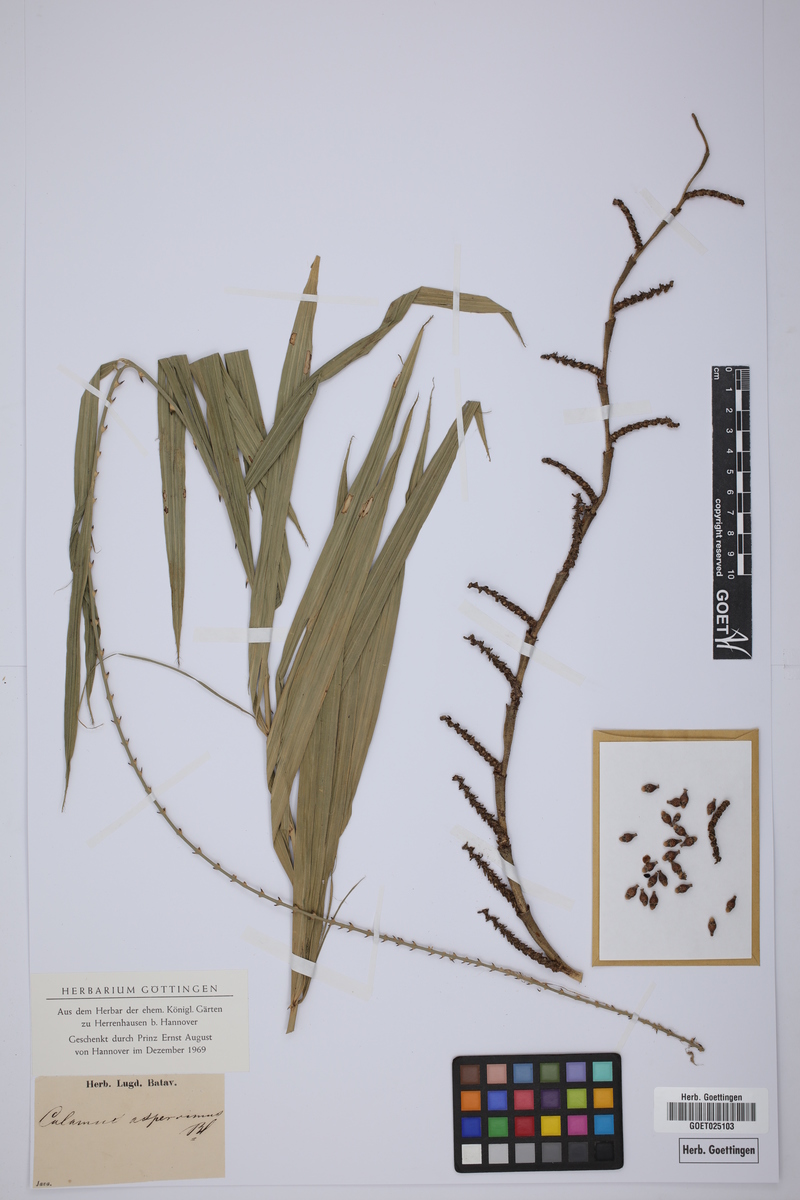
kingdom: Plantae
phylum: Tracheophyta
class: Liliopsida
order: Arecales
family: Arecaceae
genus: Calamus
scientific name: Calamus asperrimus
